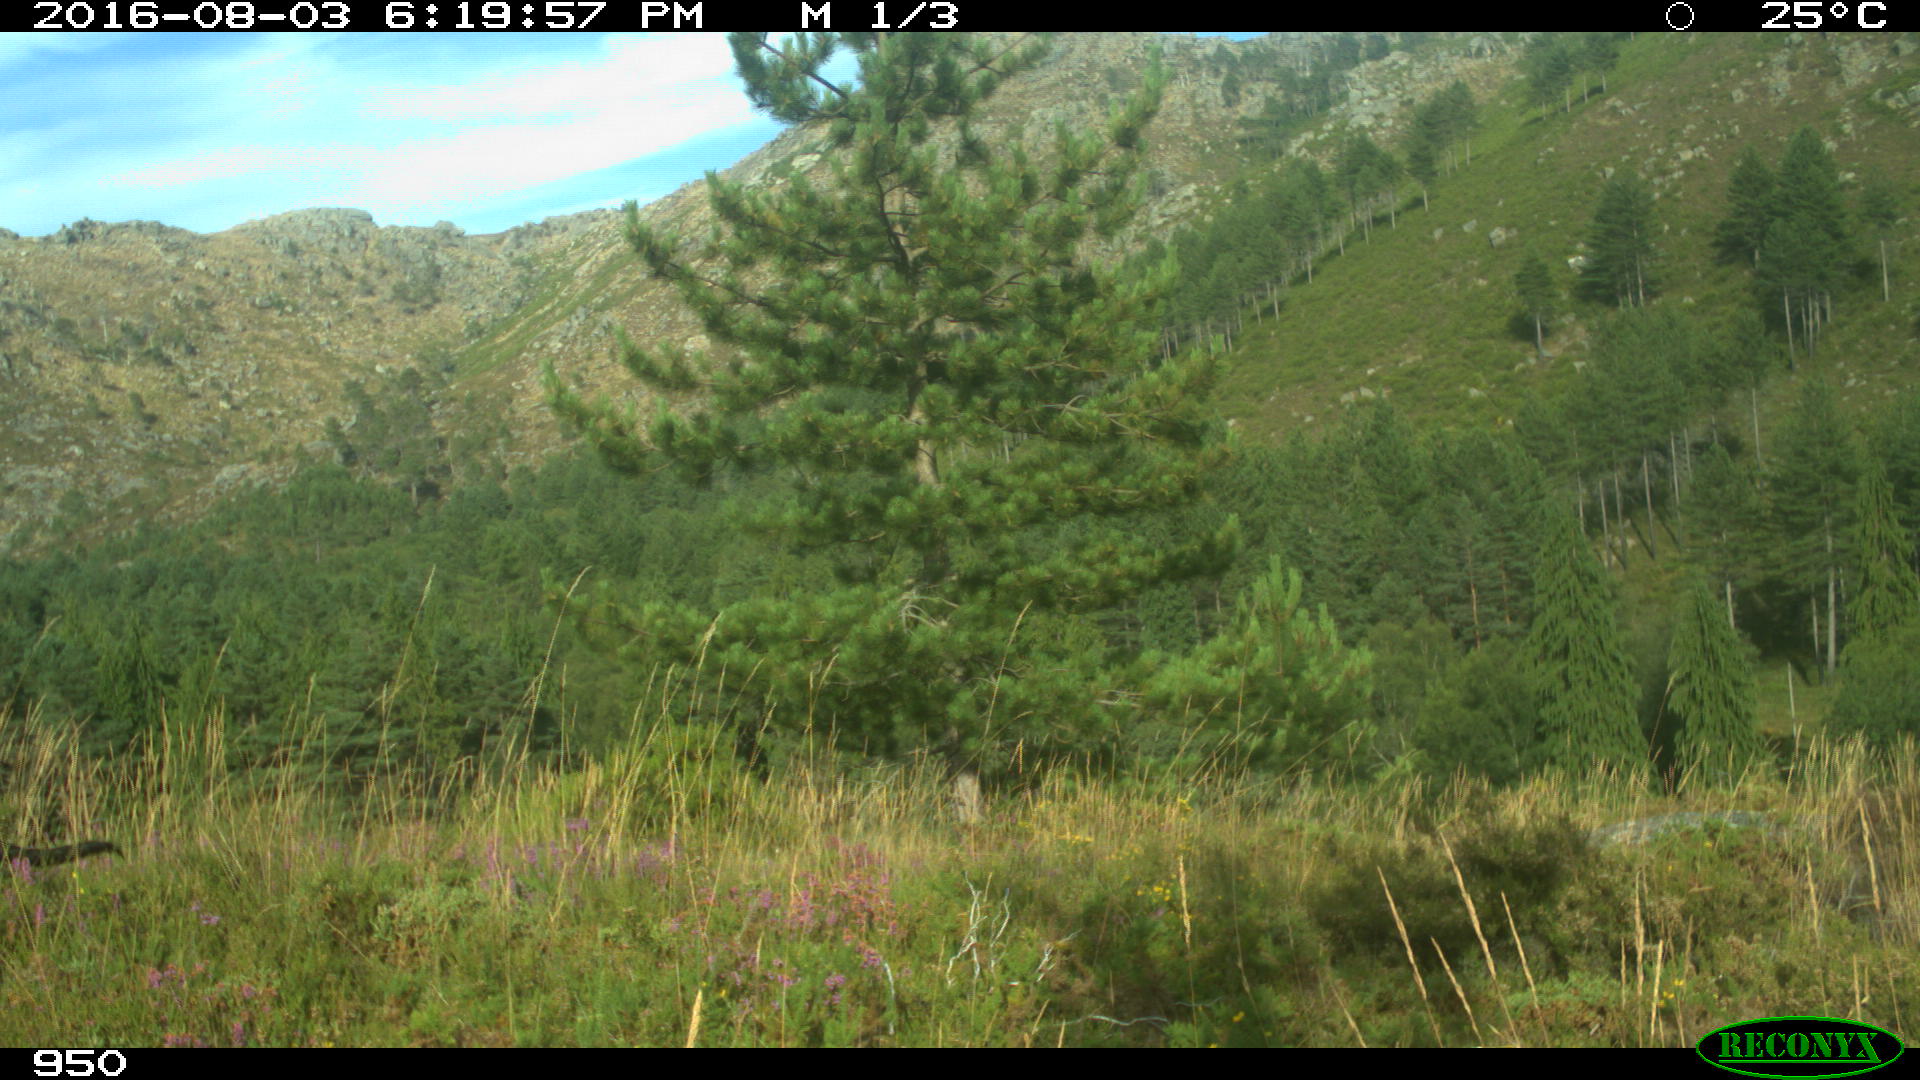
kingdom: Animalia
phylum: Chordata
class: Mammalia
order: Artiodactyla
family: Bovidae
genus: Bos
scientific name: Bos taurus
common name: Domesticated cattle
